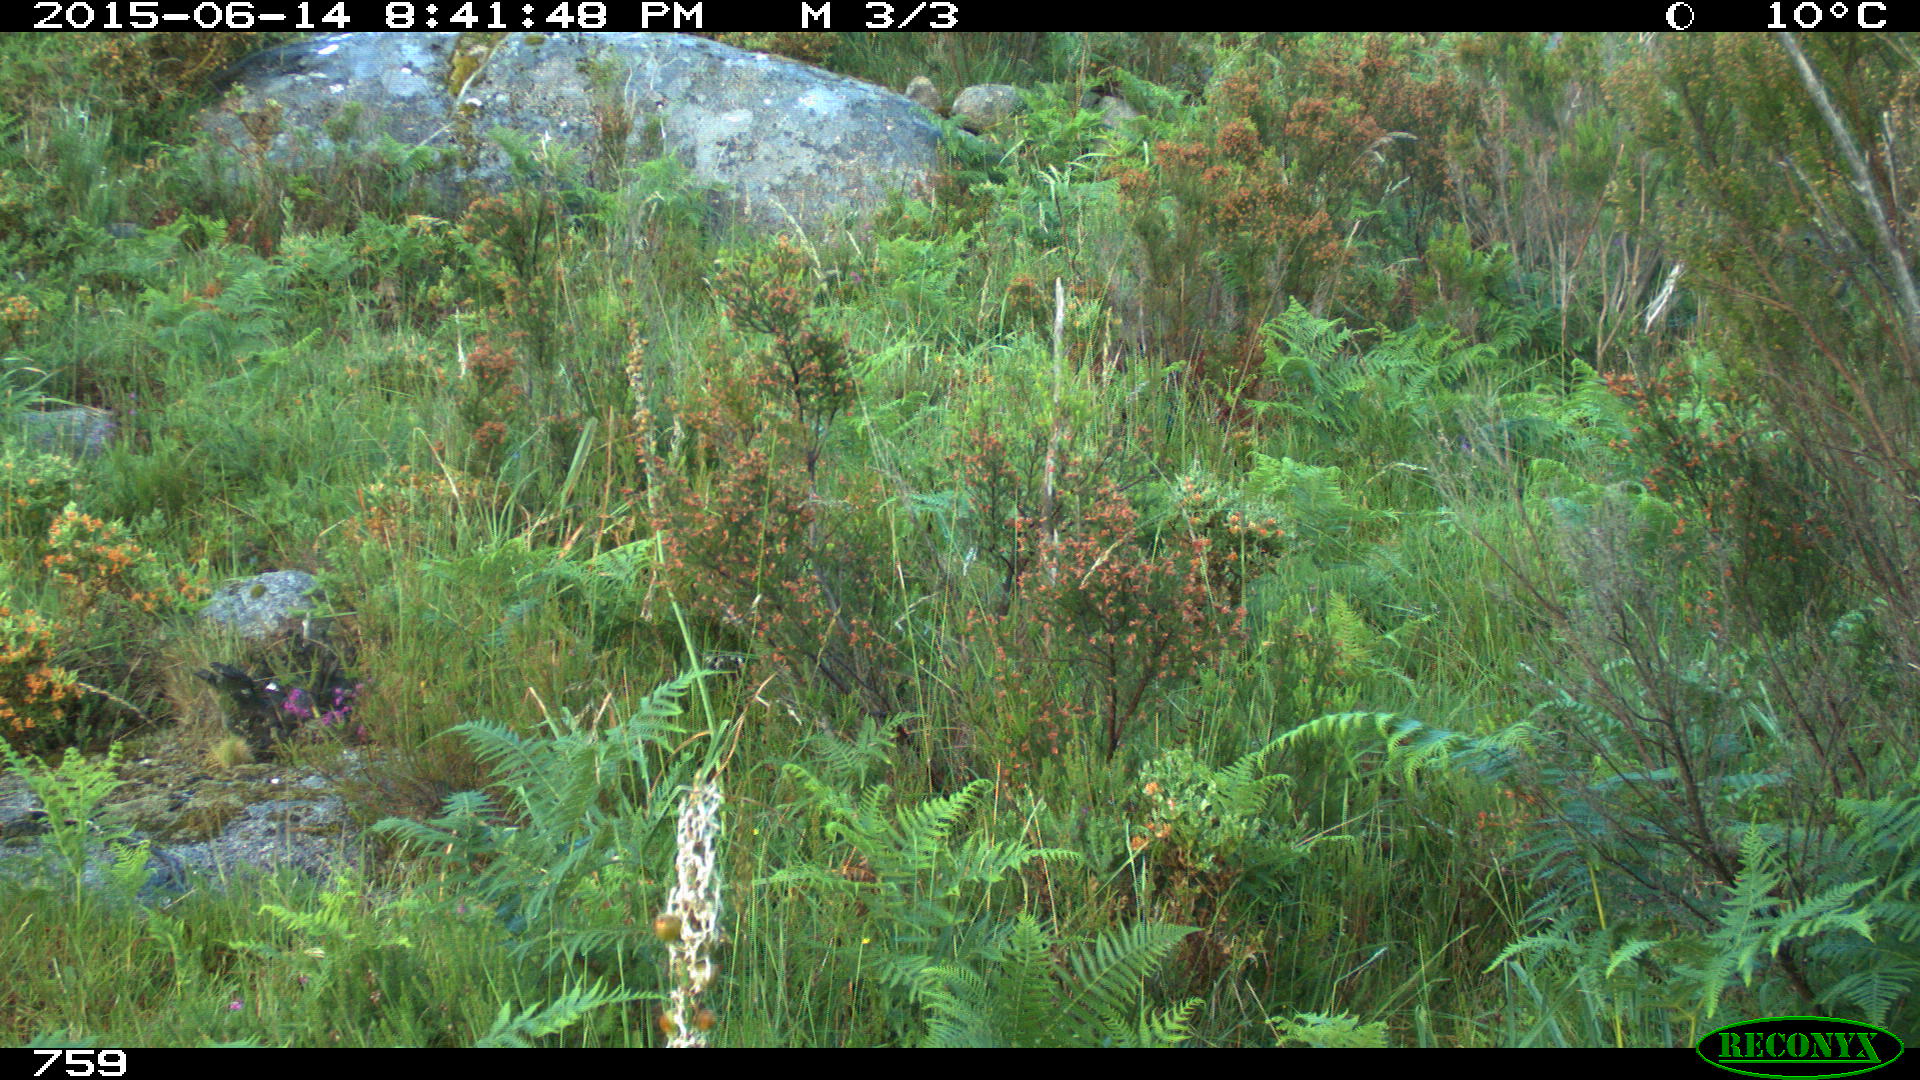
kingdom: Animalia
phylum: Chordata
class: Mammalia
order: Perissodactyla
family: Equidae
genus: Equus
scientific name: Equus caballus
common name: Horse
